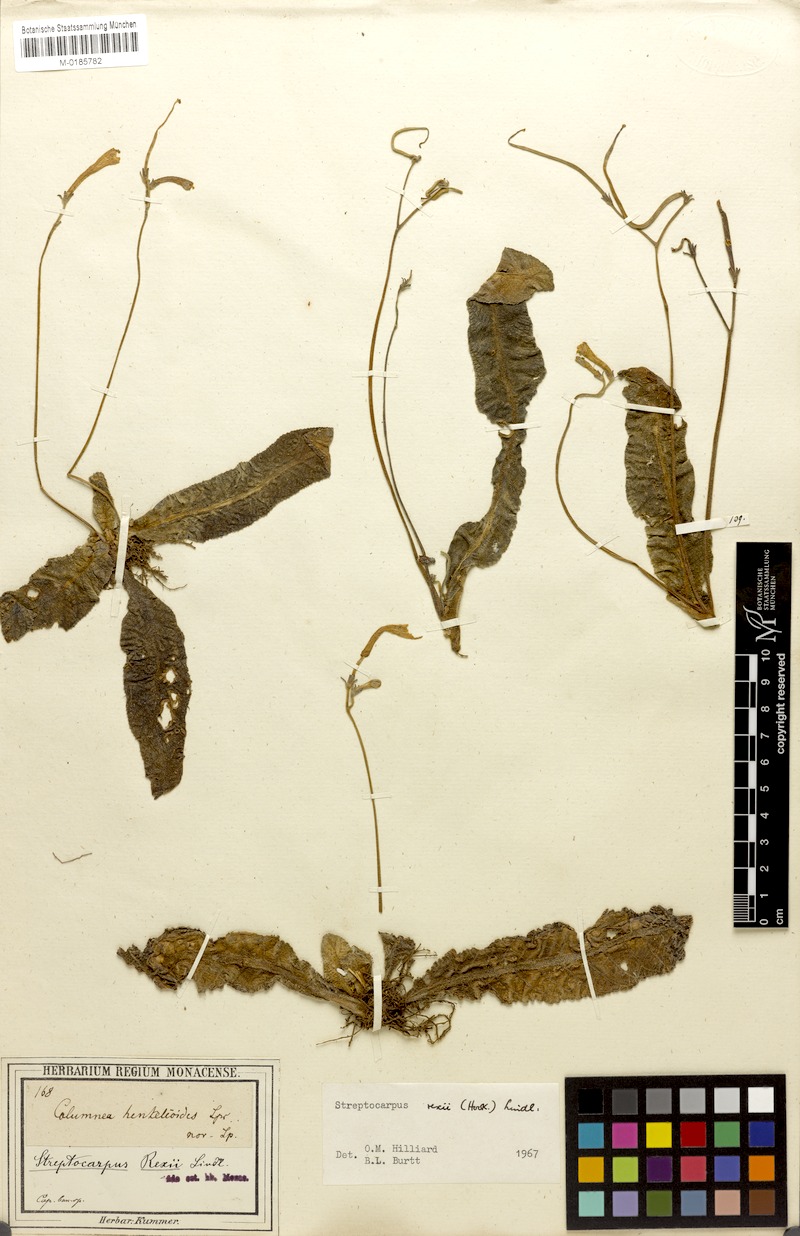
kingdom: Plantae
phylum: Tracheophyta
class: Magnoliopsida
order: Lamiales
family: Gesneriaceae
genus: Streptocarpus
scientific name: Streptocarpus meyeri
